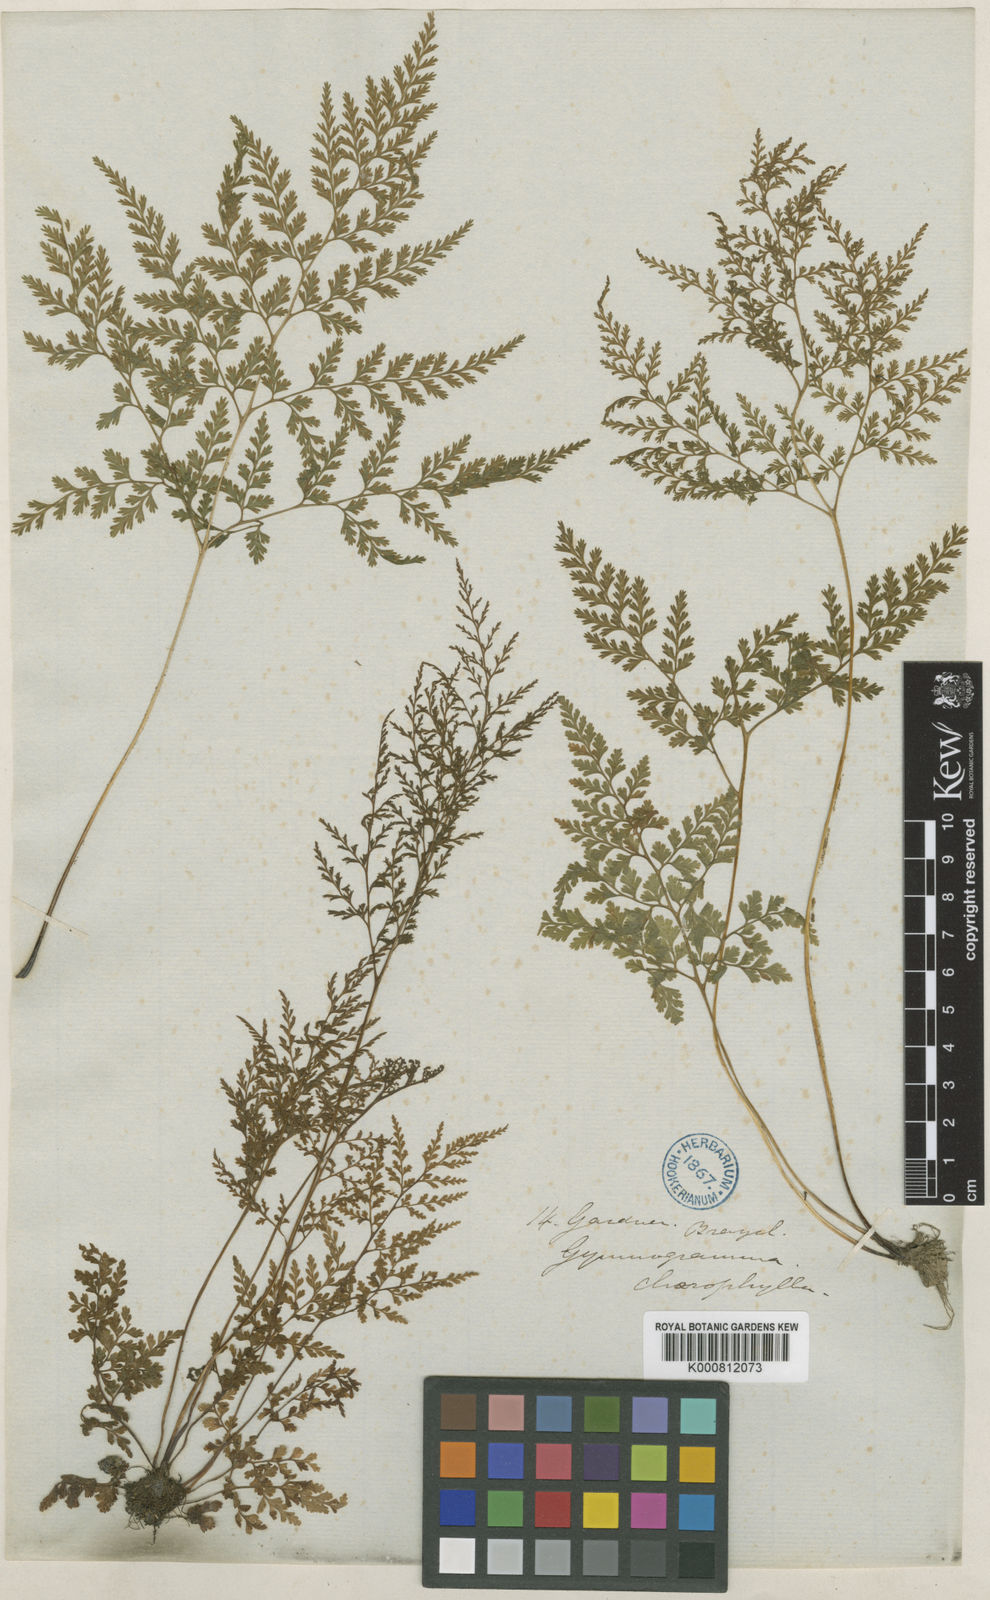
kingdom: Plantae
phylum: Tracheophyta
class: Polypodiopsida
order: Polypodiales
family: Pteridaceae
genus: Gastoniella
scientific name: Gastoniella chaerophylla
